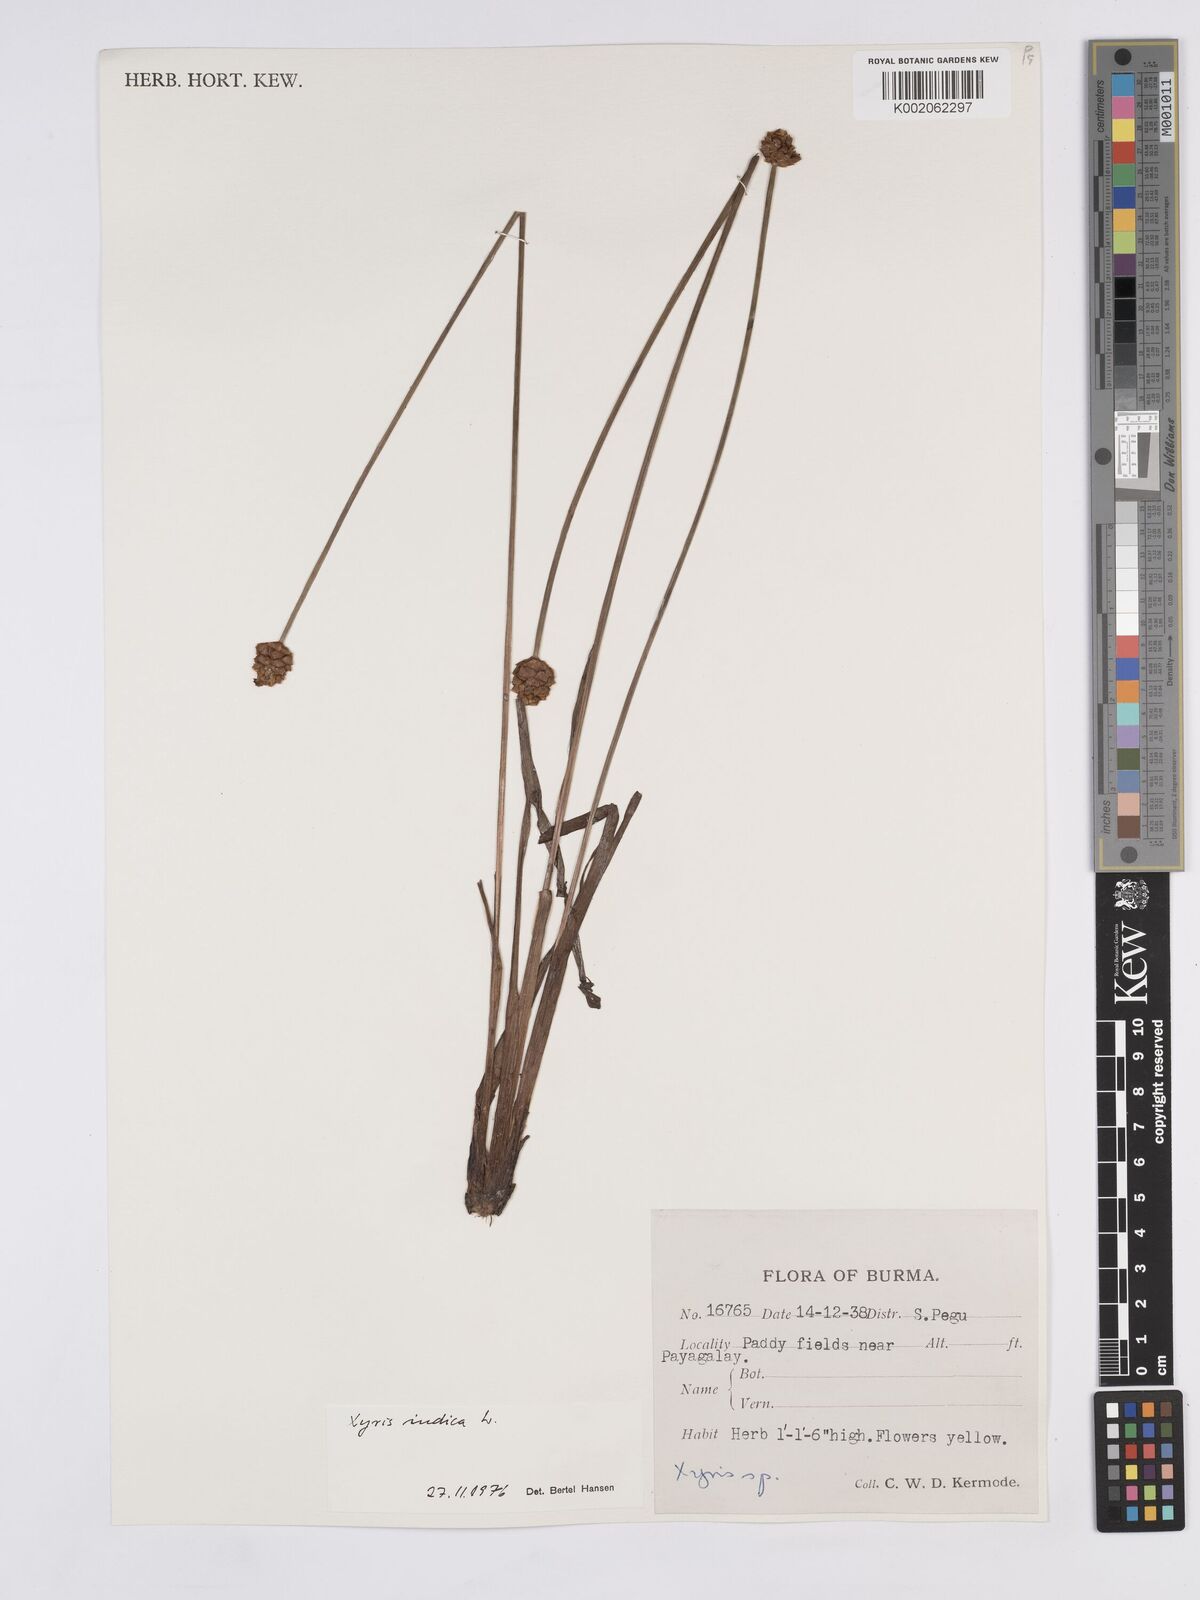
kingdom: Plantae
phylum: Tracheophyta
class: Liliopsida
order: Poales
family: Xyridaceae
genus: Xyris
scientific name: Xyris indica
